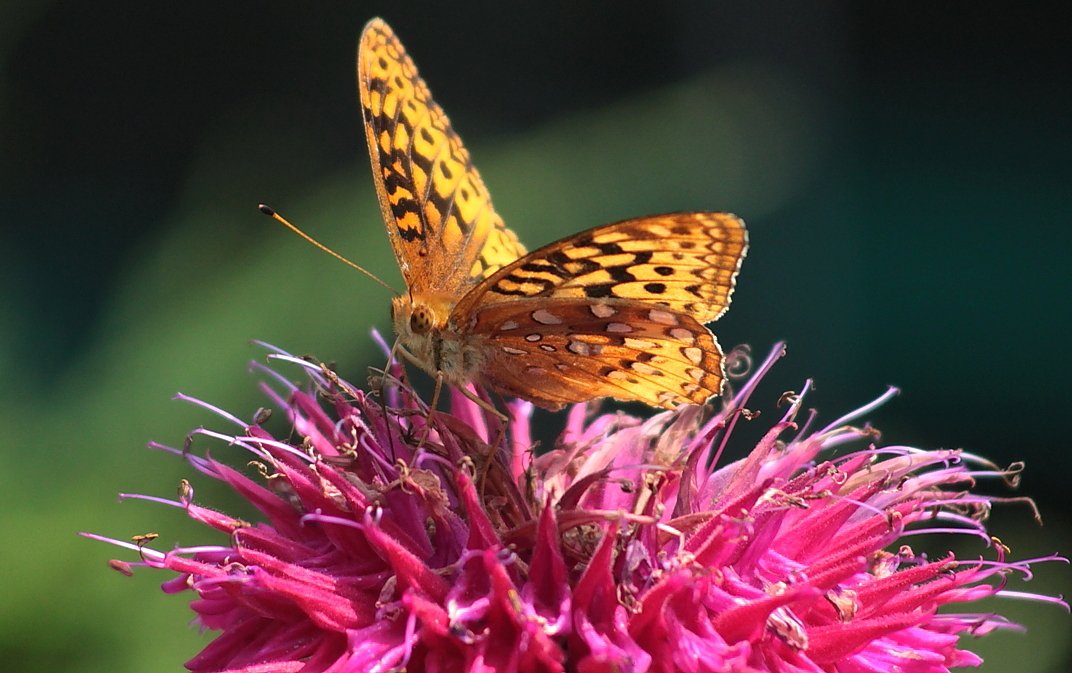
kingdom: Animalia
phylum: Arthropoda
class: Insecta
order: Lepidoptera
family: Nymphalidae
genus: Speyeria
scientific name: Speyeria cybele
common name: Great Spangled Fritillary
